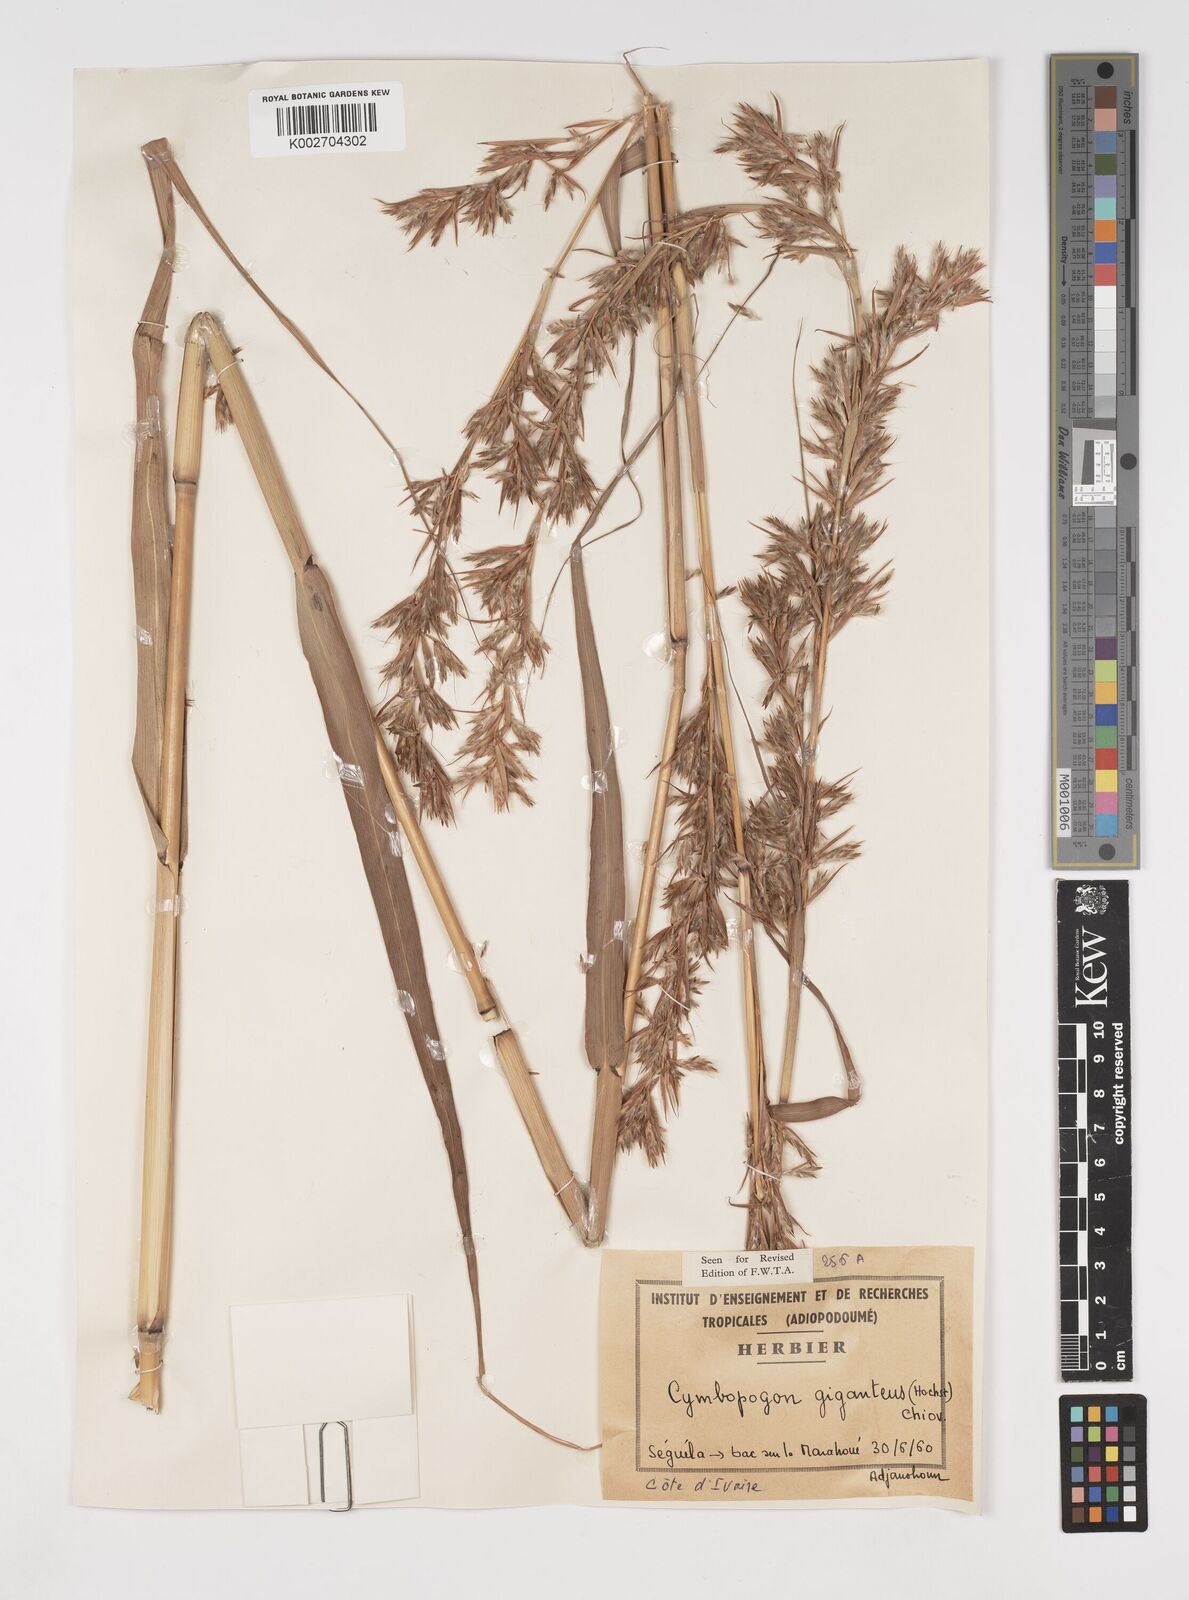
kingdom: Plantae
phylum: Tracheophyta
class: Liliopsida
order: Poales
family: Poaceae
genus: Cymbopogon
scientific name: Cymbopogon giganteus
